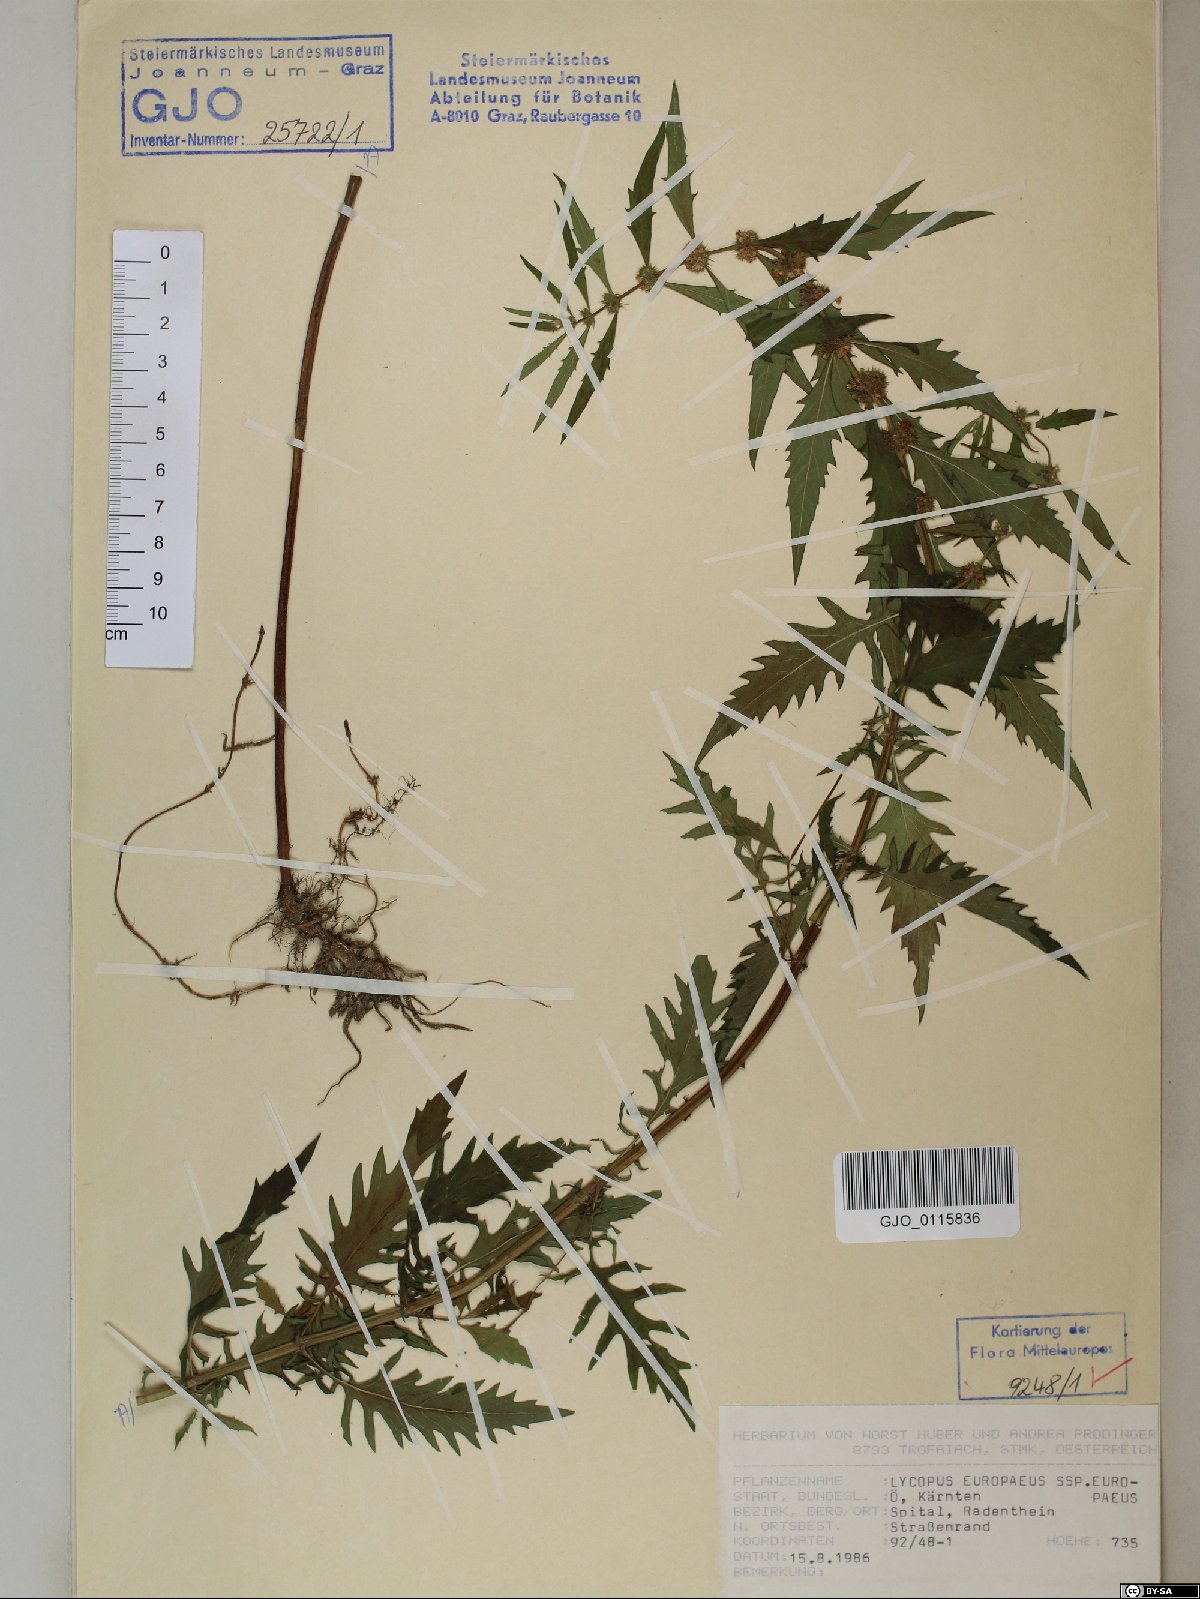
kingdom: Plantae
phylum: Tracheophyta
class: Magnoliopsida
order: Lamiales
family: Lamiaceae
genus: Lycopus
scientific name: Lycopus europaeus
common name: European bugleweed
